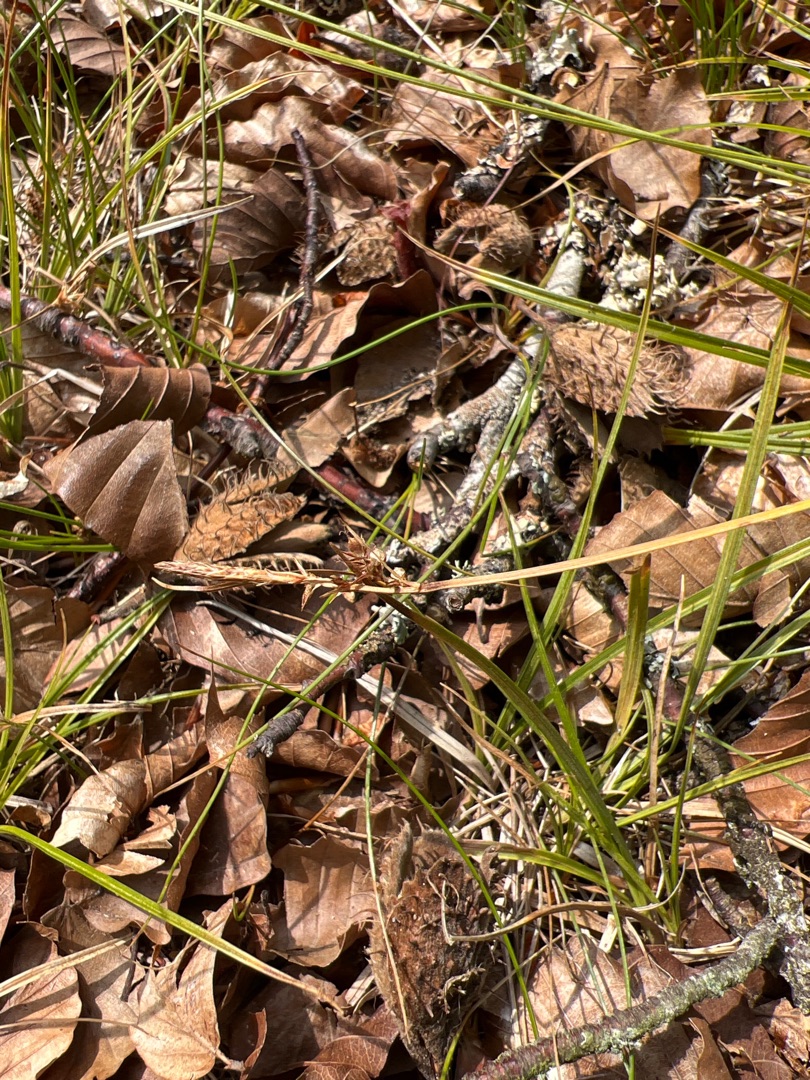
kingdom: Plantae
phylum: Tracheophyta
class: Liliopsida
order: Poales
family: Cyperaceae
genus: Carex
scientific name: Carex pilulifera
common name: Pille-star
